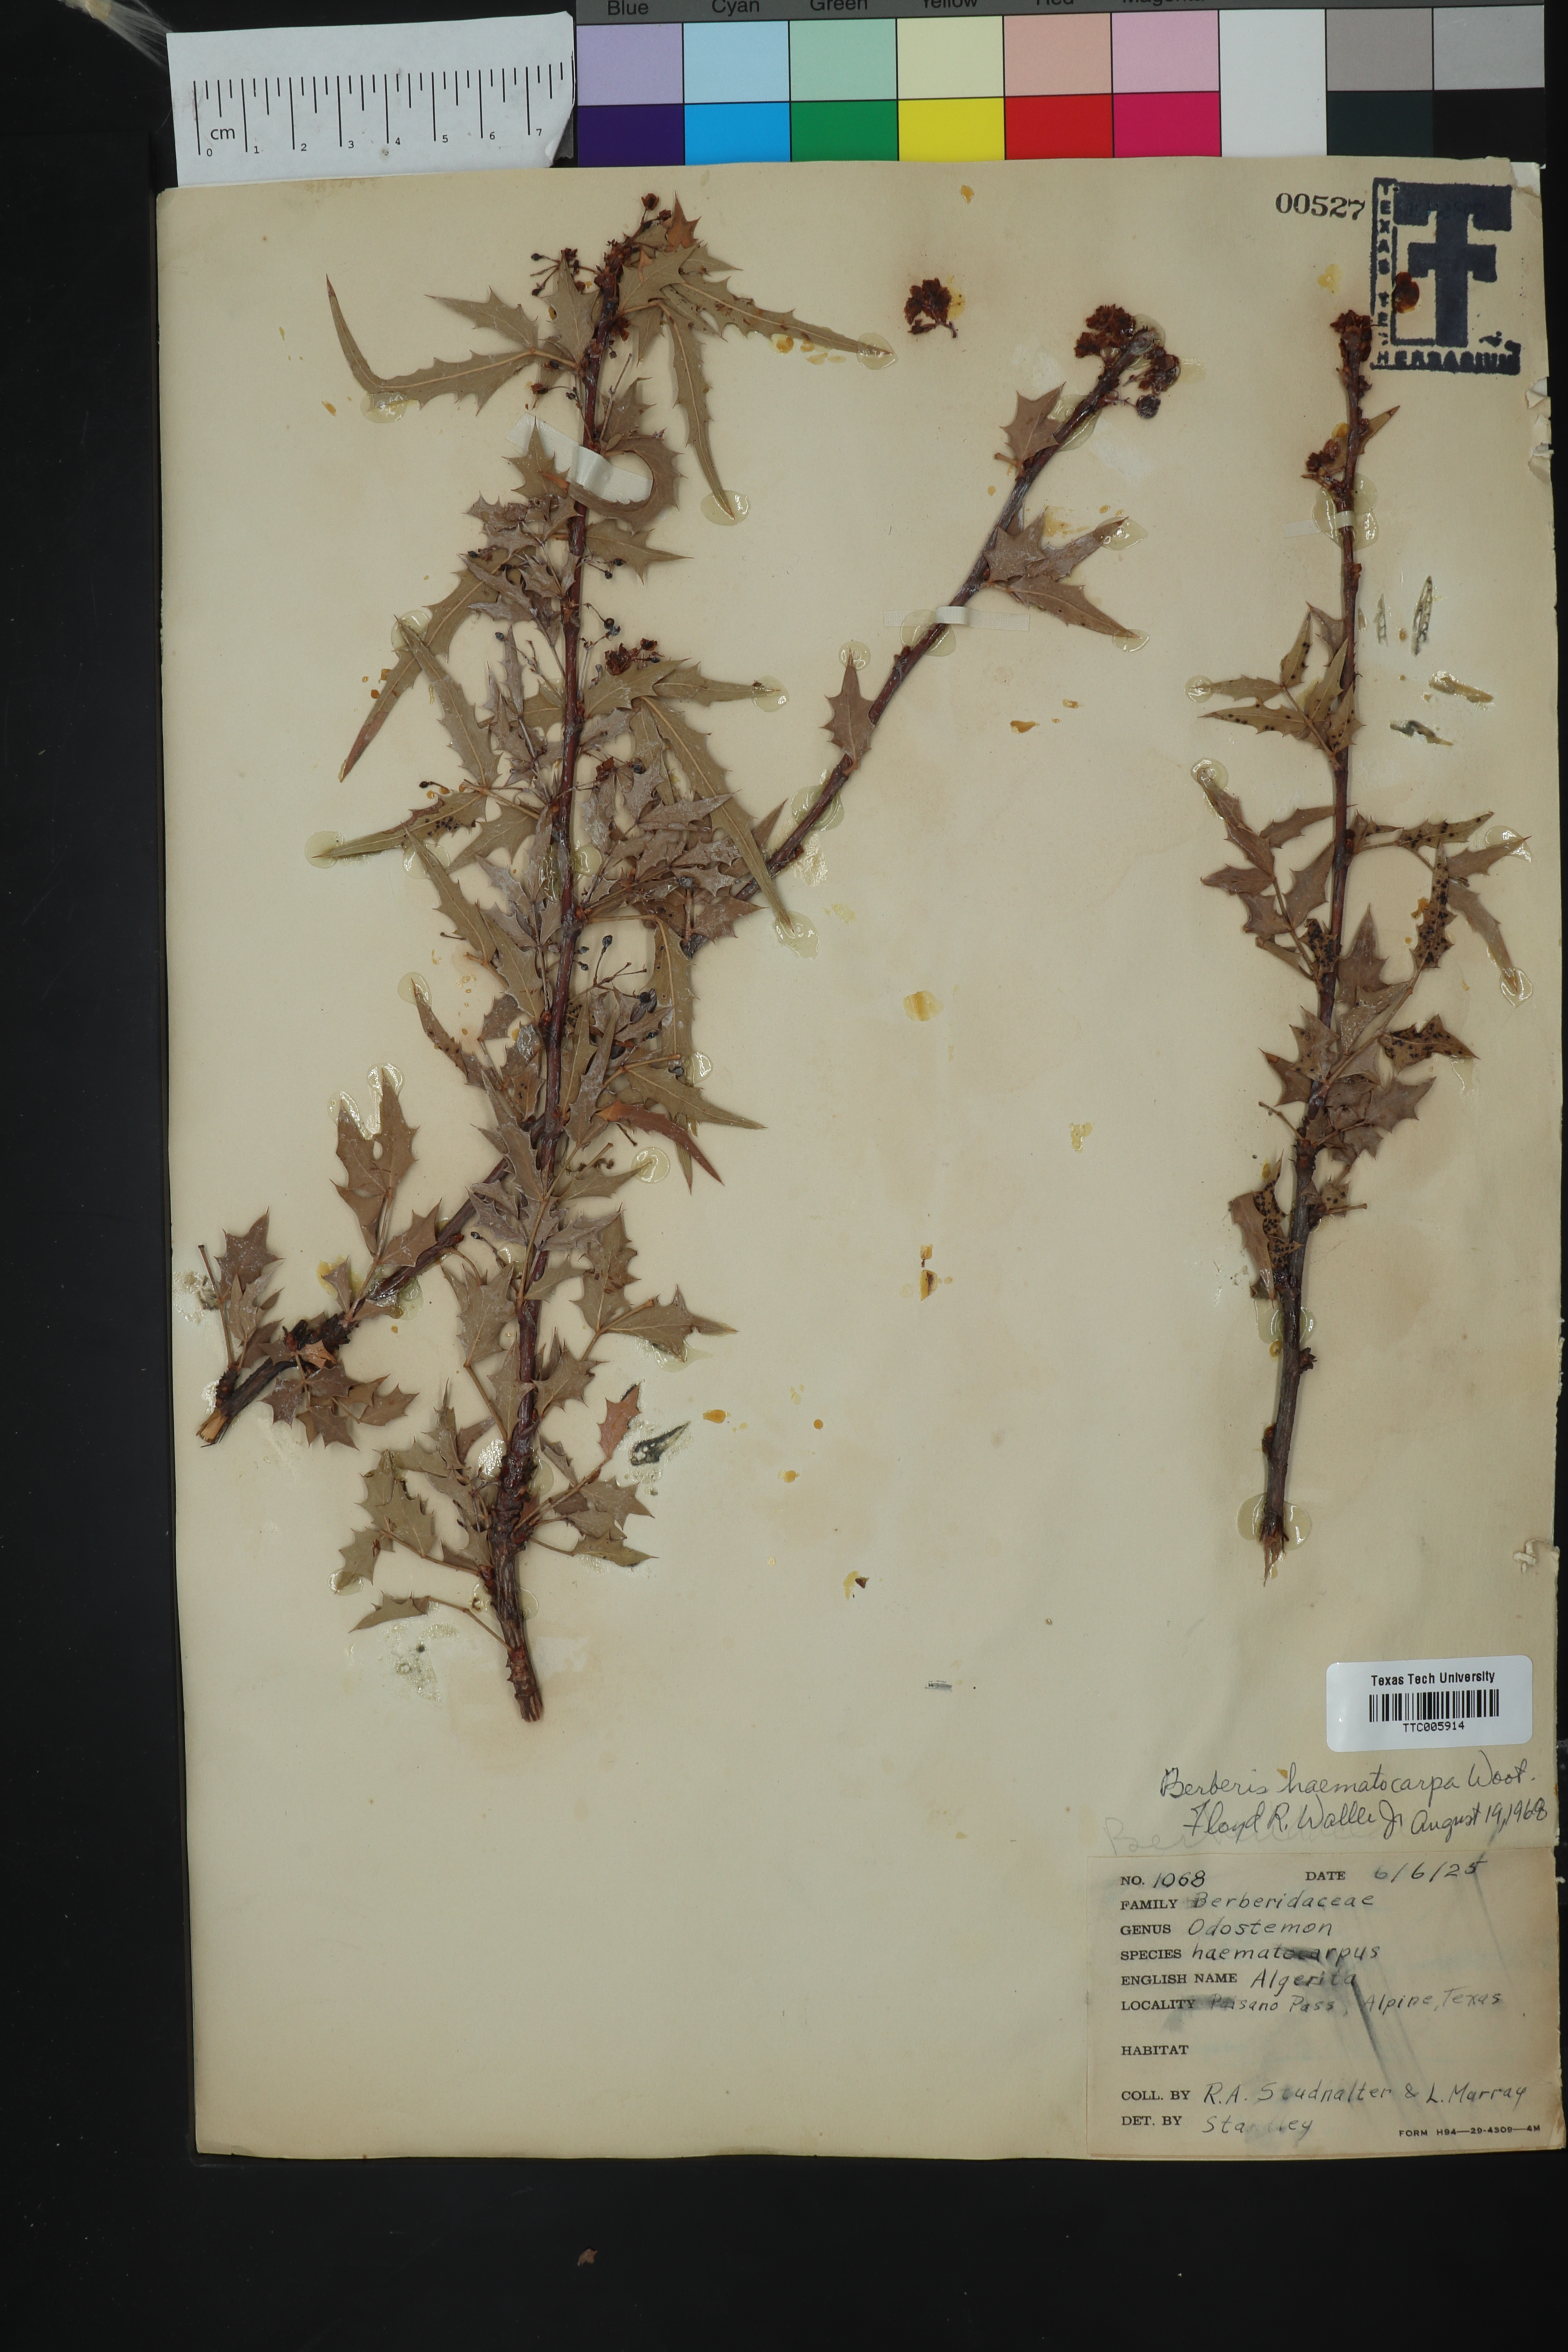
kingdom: Plantae
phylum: Tracheophyta
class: Magnoliopsida
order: Ranunculales
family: Berberidaceae
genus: Alloberberis
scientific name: Alloberberis haematocarpa
